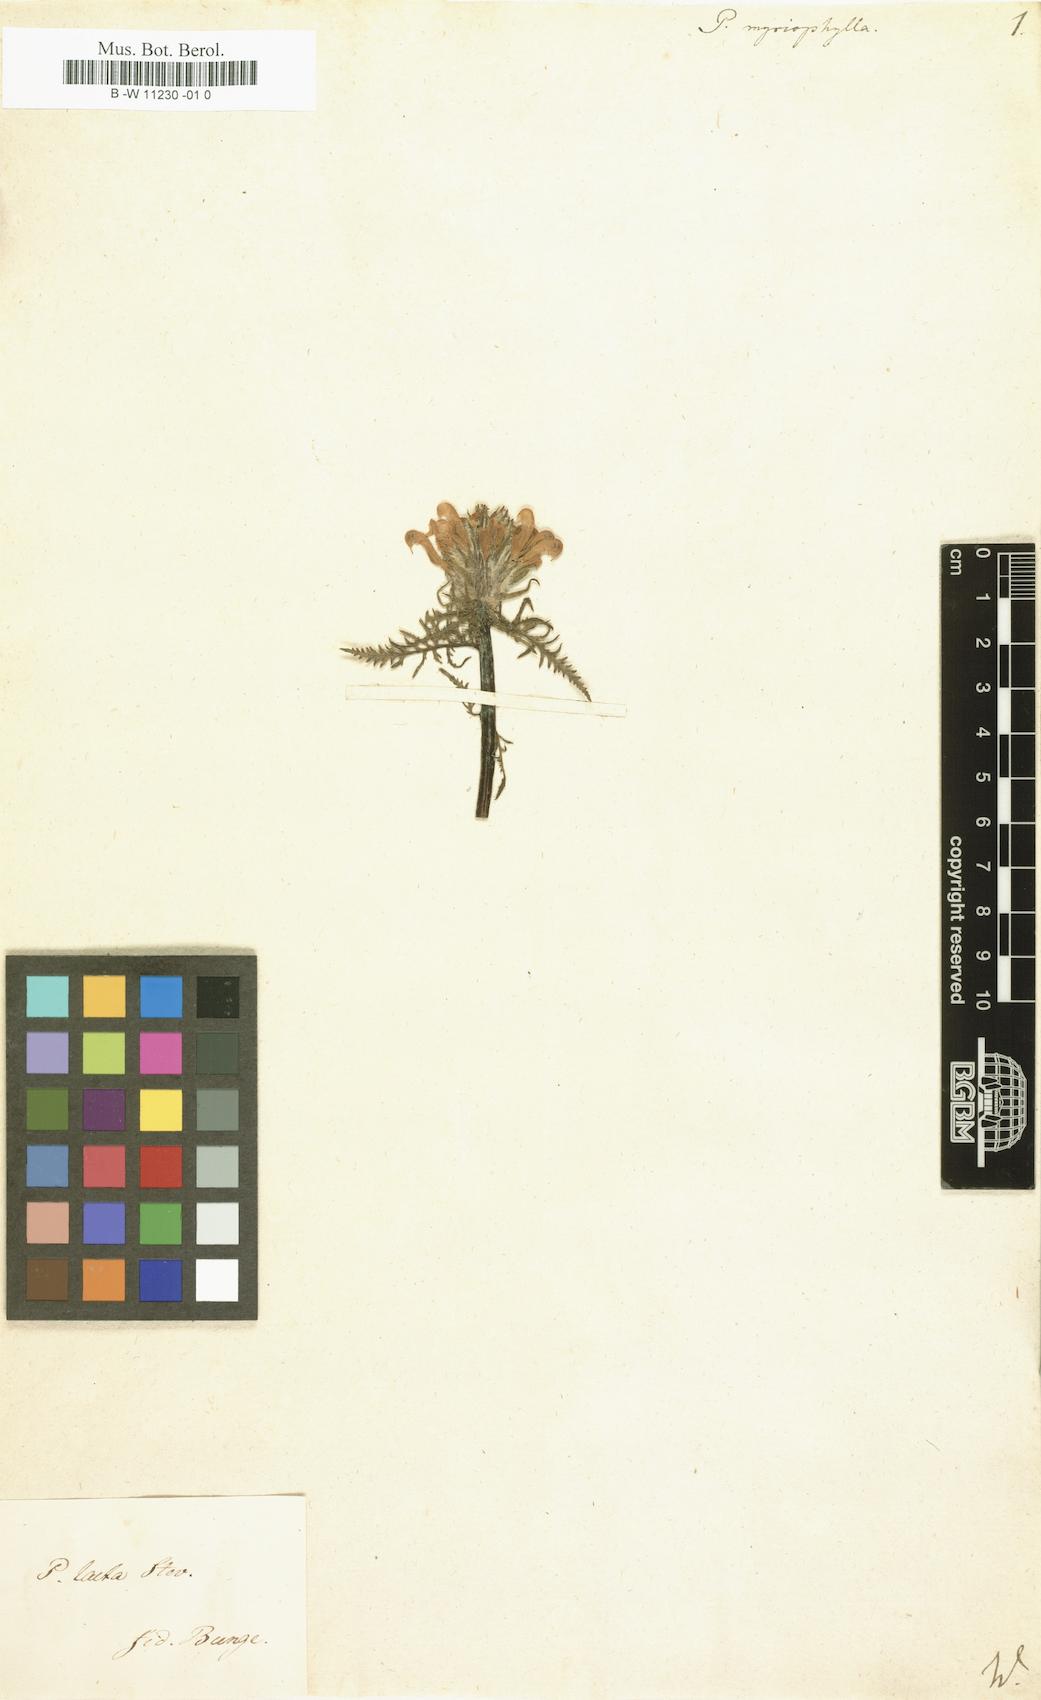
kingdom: Plantae
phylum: Tracheophyta
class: Magnoliopsida
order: Lamiales
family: Orobanchaceae
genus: Pedicularis
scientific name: Pedicularis myriophylla
